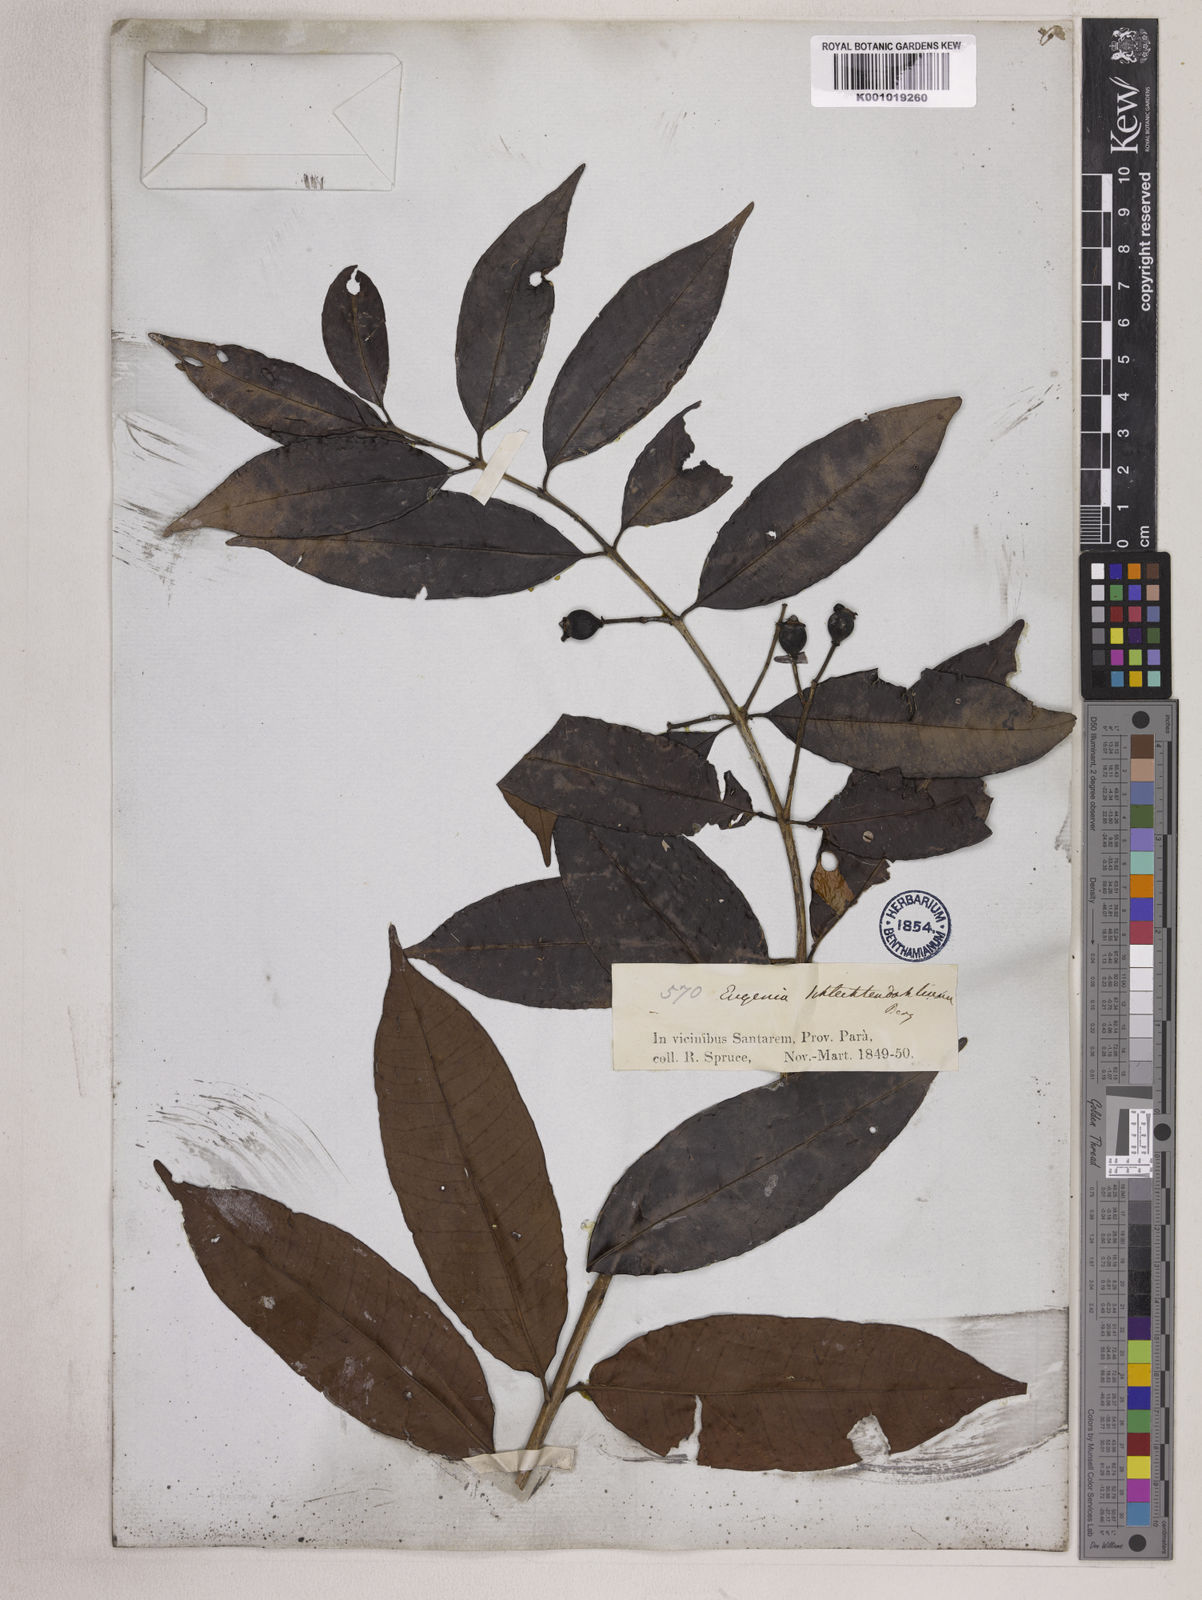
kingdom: Plantae
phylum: Tracheophyta
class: Magnoliopsida
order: Myrtales
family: Myrtaceae
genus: Eugenia
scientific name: Eugenia patens
